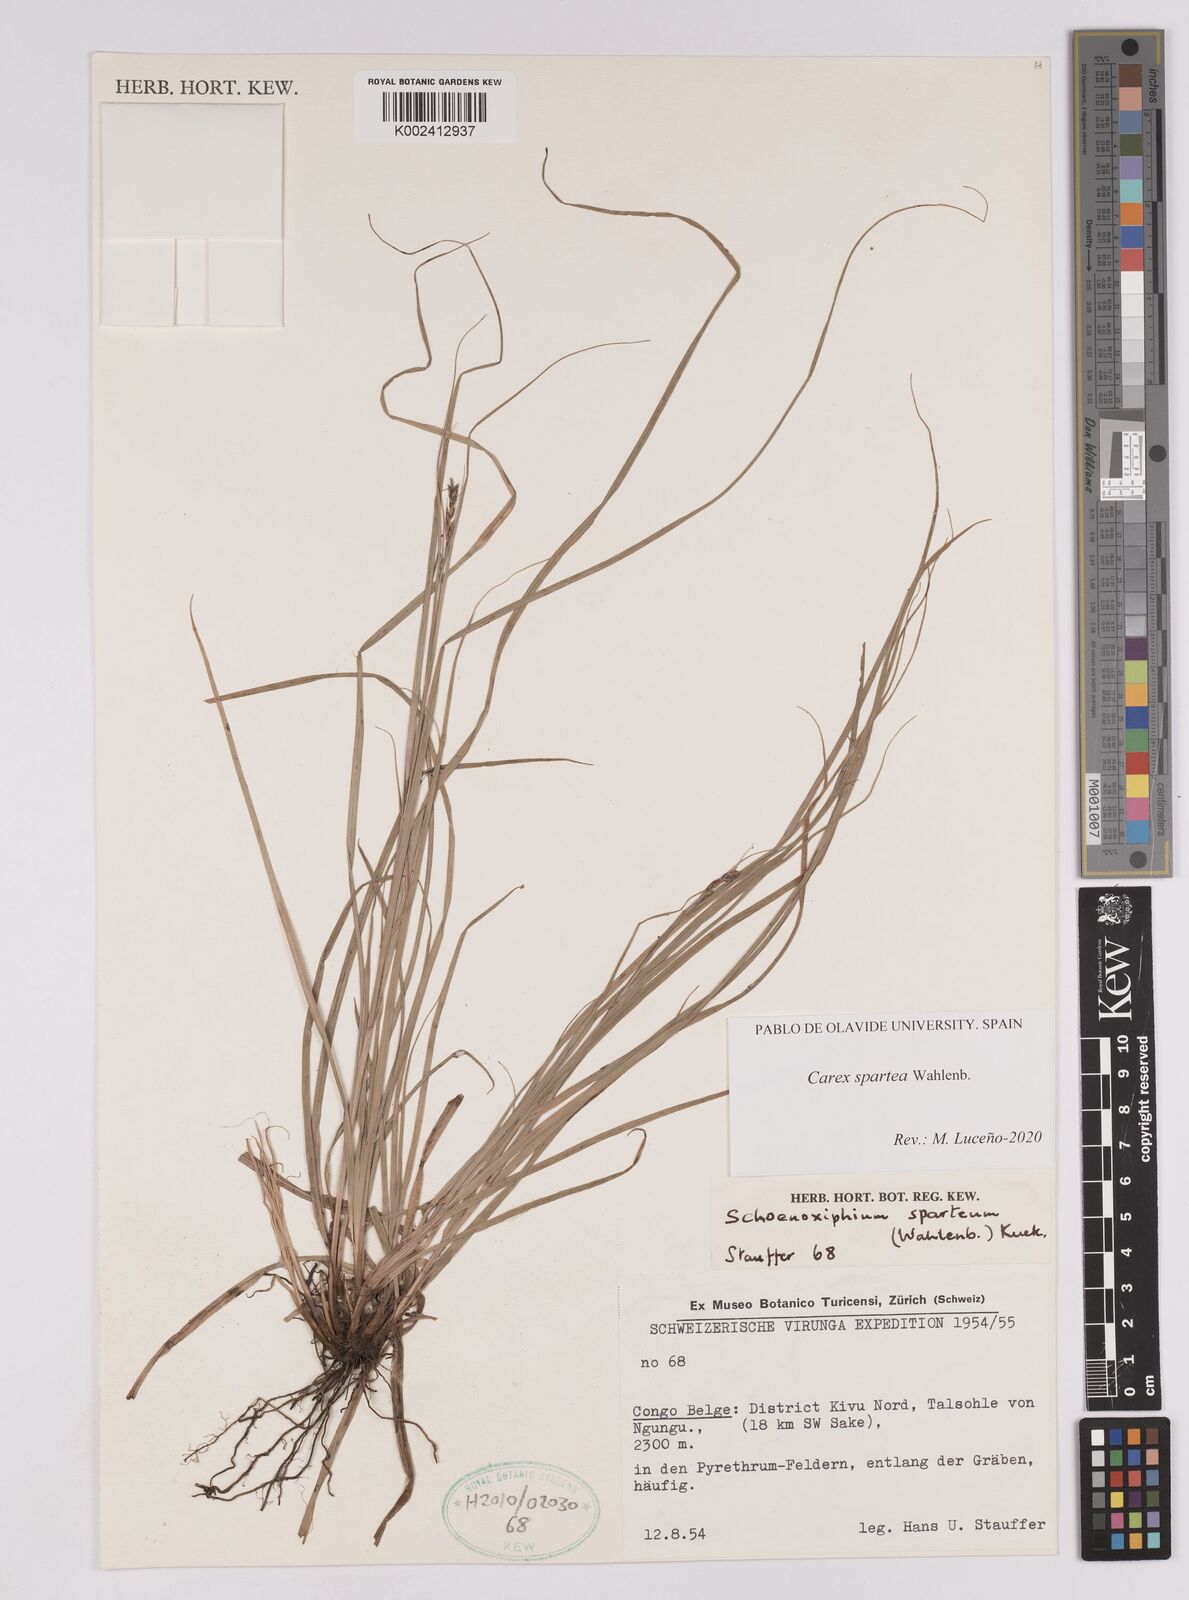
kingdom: Plantae
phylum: Tracheophyta
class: Liliopsida
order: Poales
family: Cyperaceae
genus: Carex
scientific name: Carex spartea
